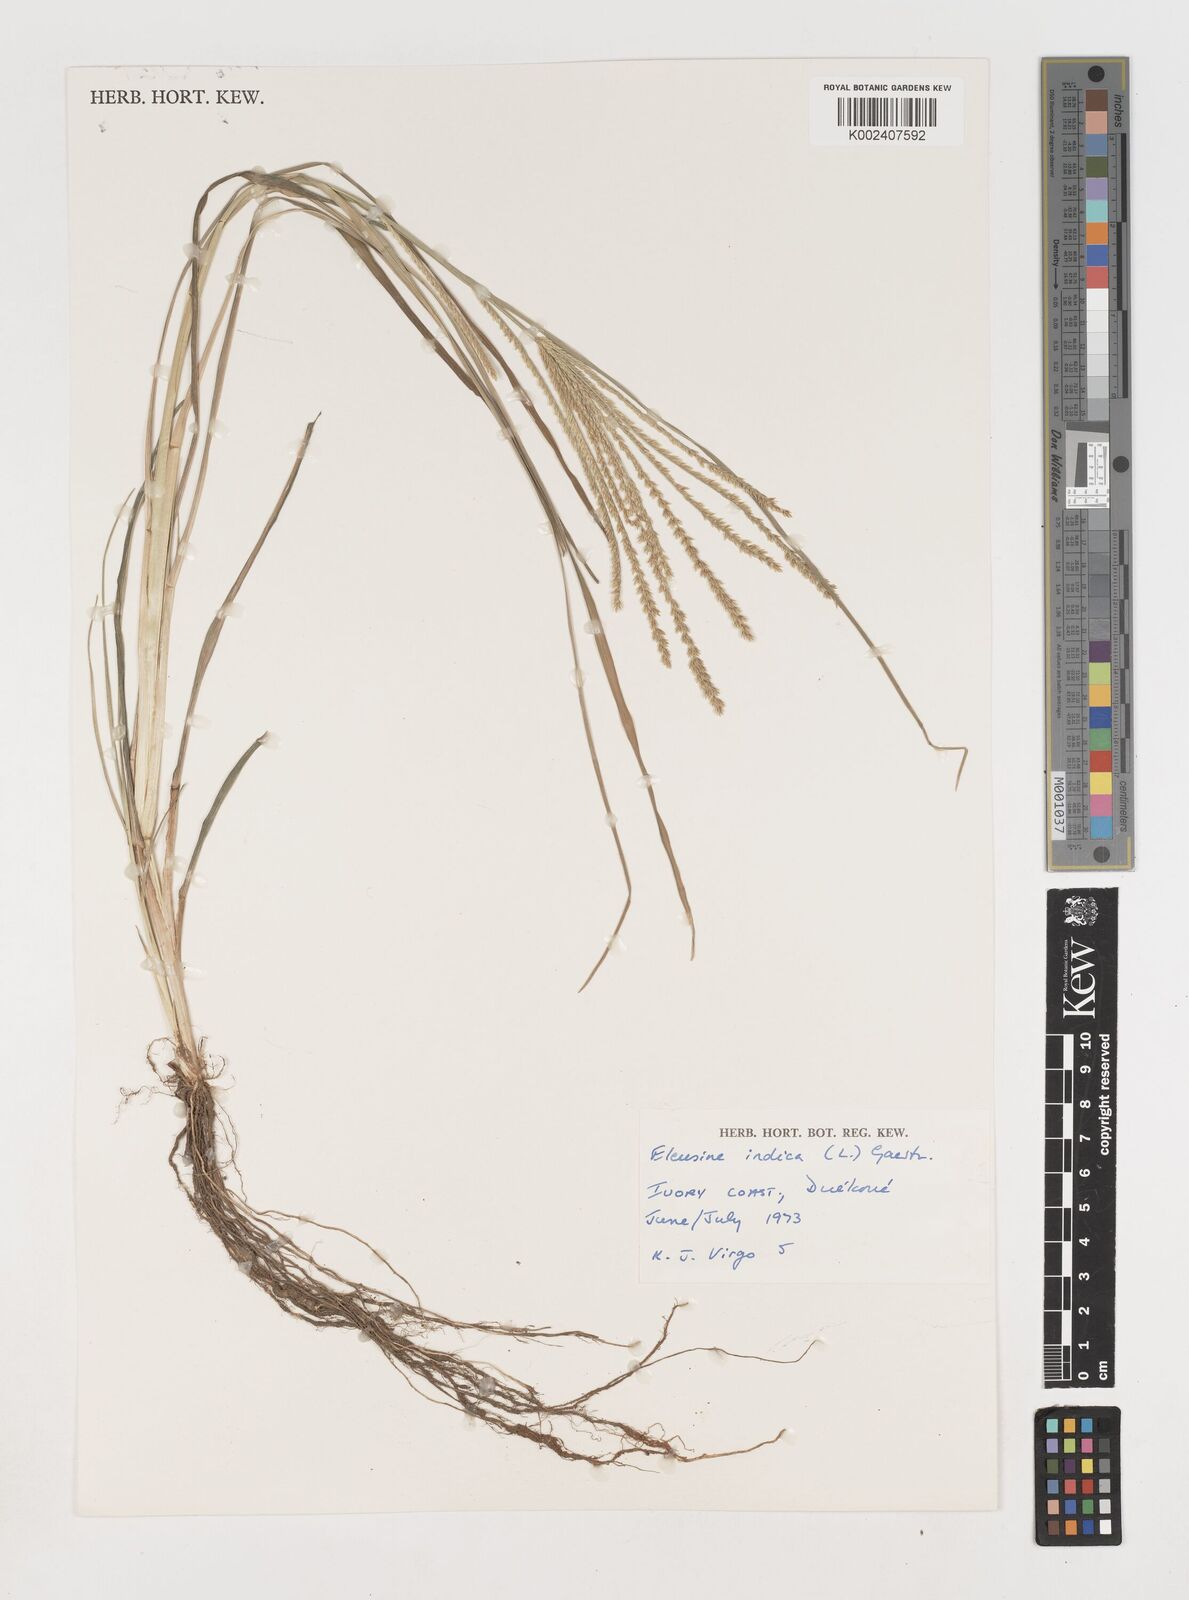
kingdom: Plantae
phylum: Tracheophyta
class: Liliopsida
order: Poales
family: Poaceae
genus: Eleusine
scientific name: Eleusine indica
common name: Yard-grass
